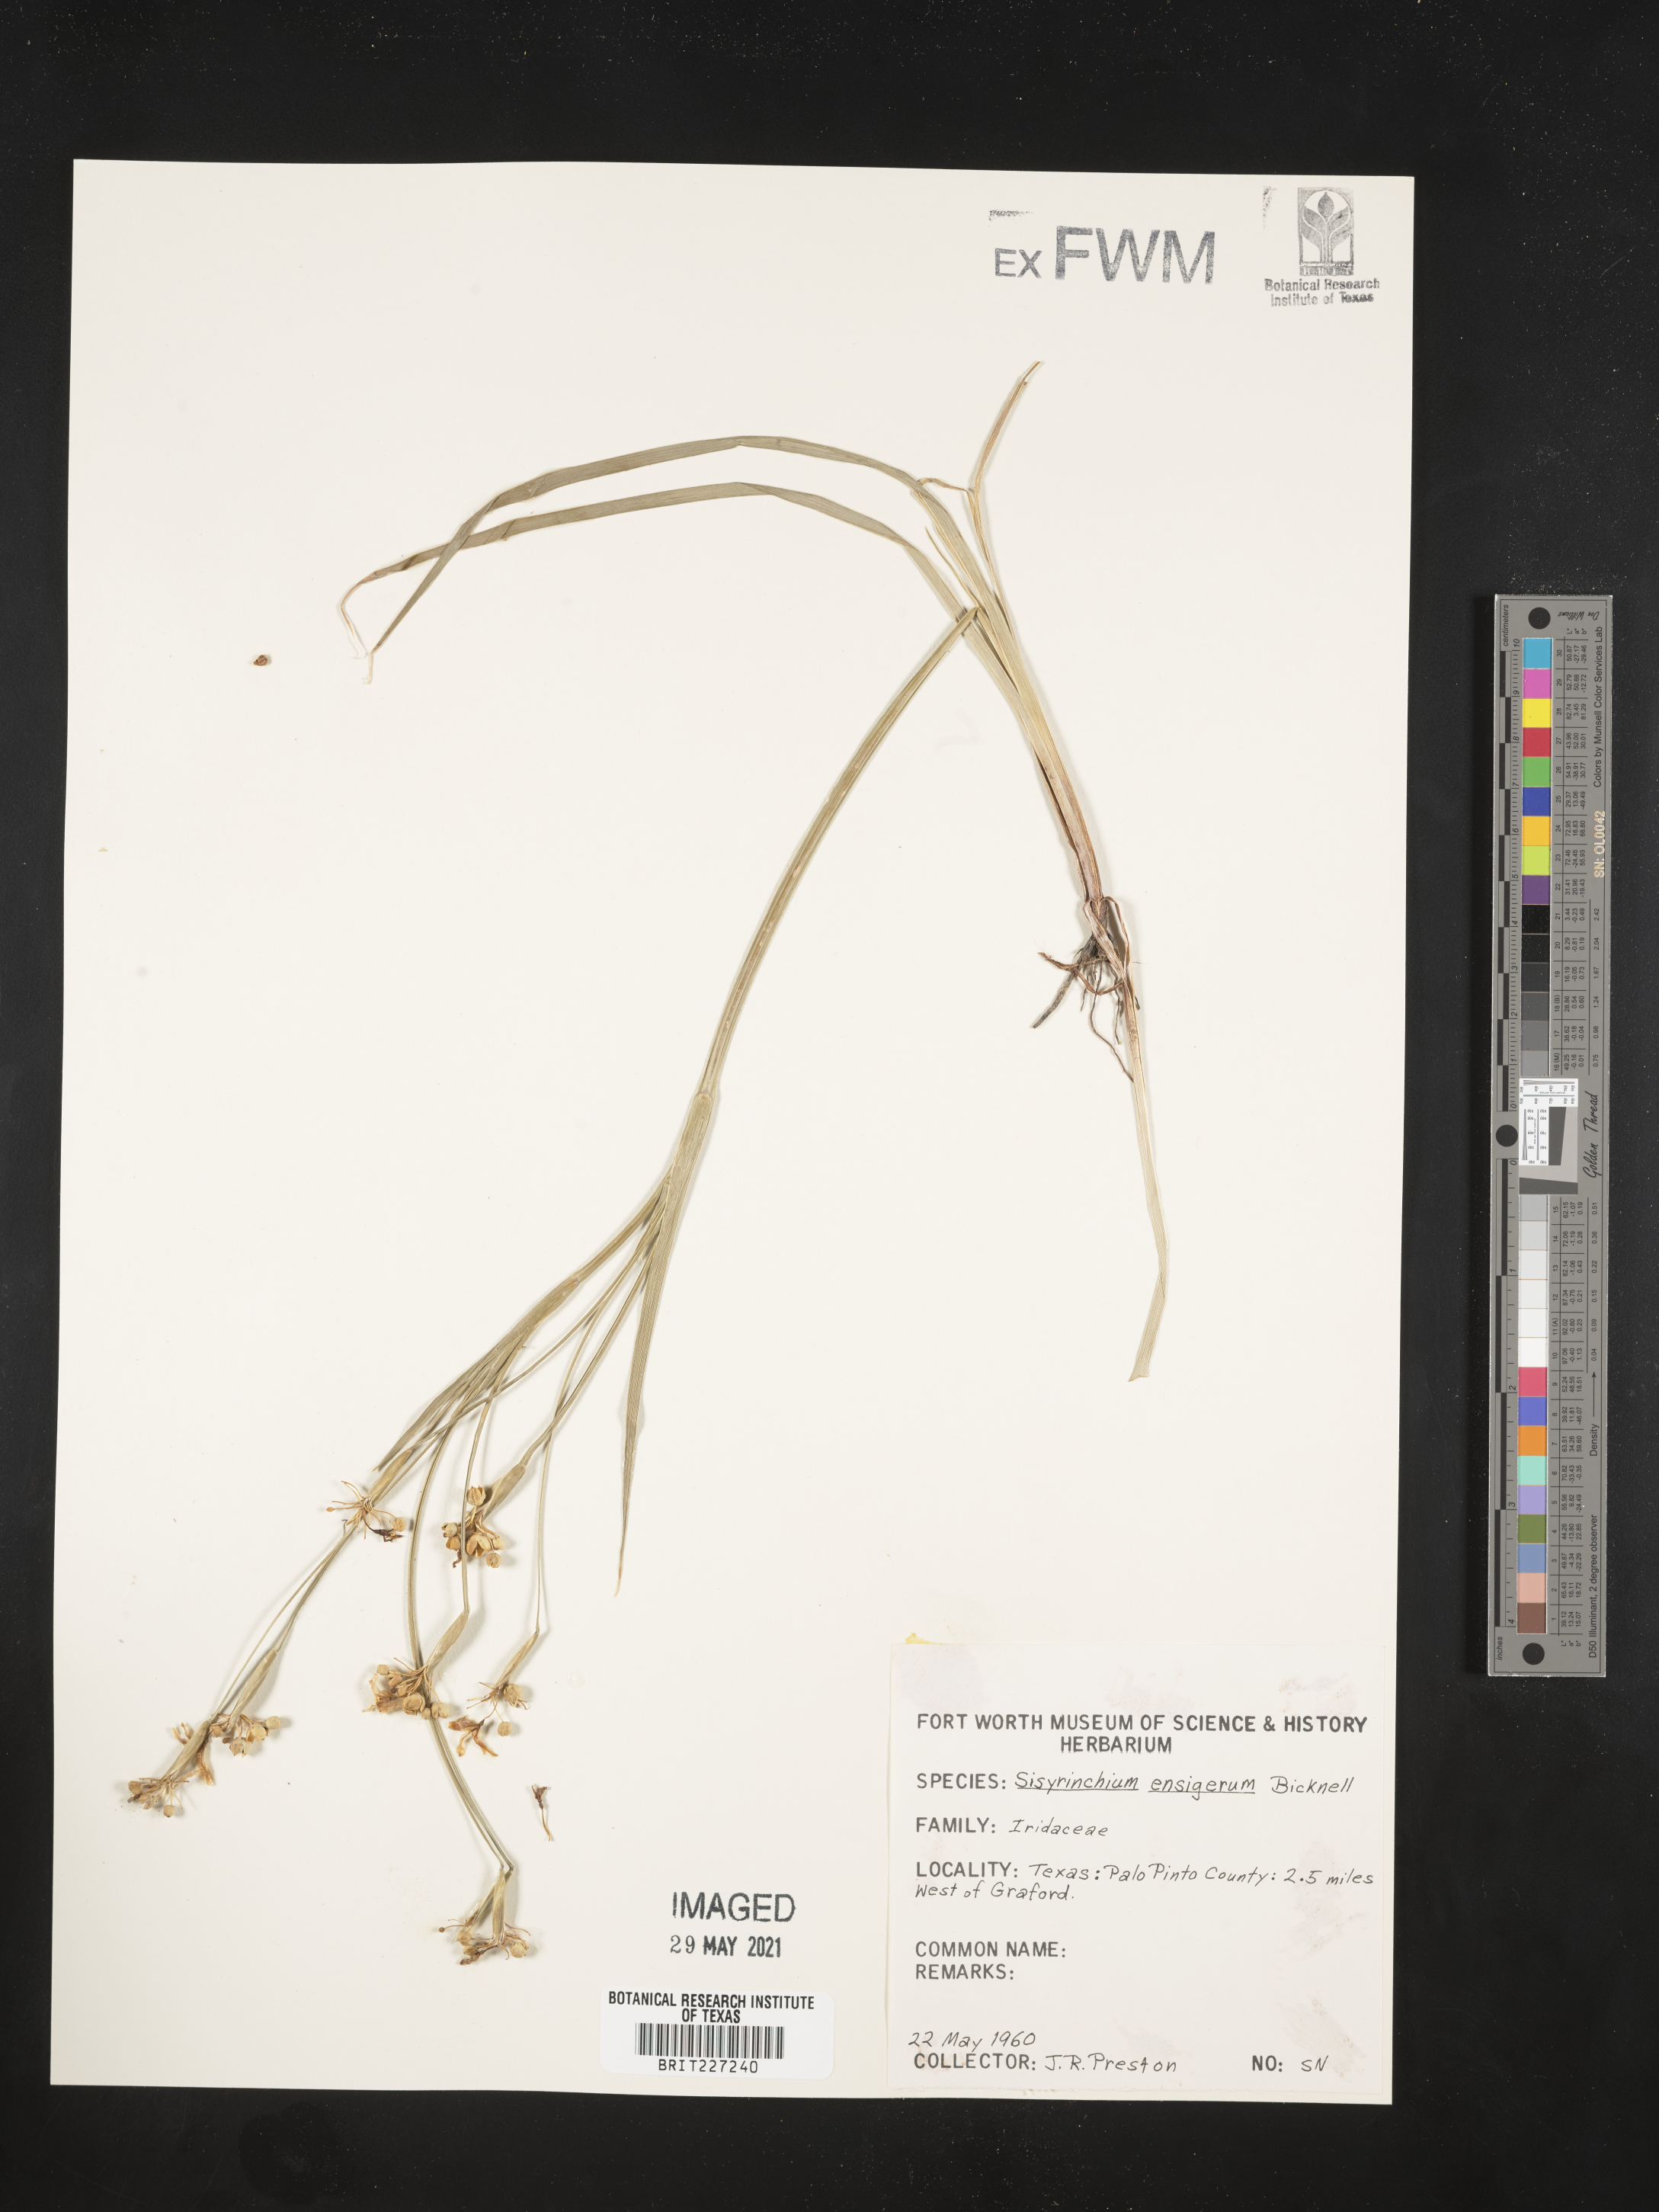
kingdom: Plantae
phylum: Tracheophyta
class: Liliopsida
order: Asparagales
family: Iridaceae
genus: Sisyrinchium
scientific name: Sisyrinchium ensigerum
